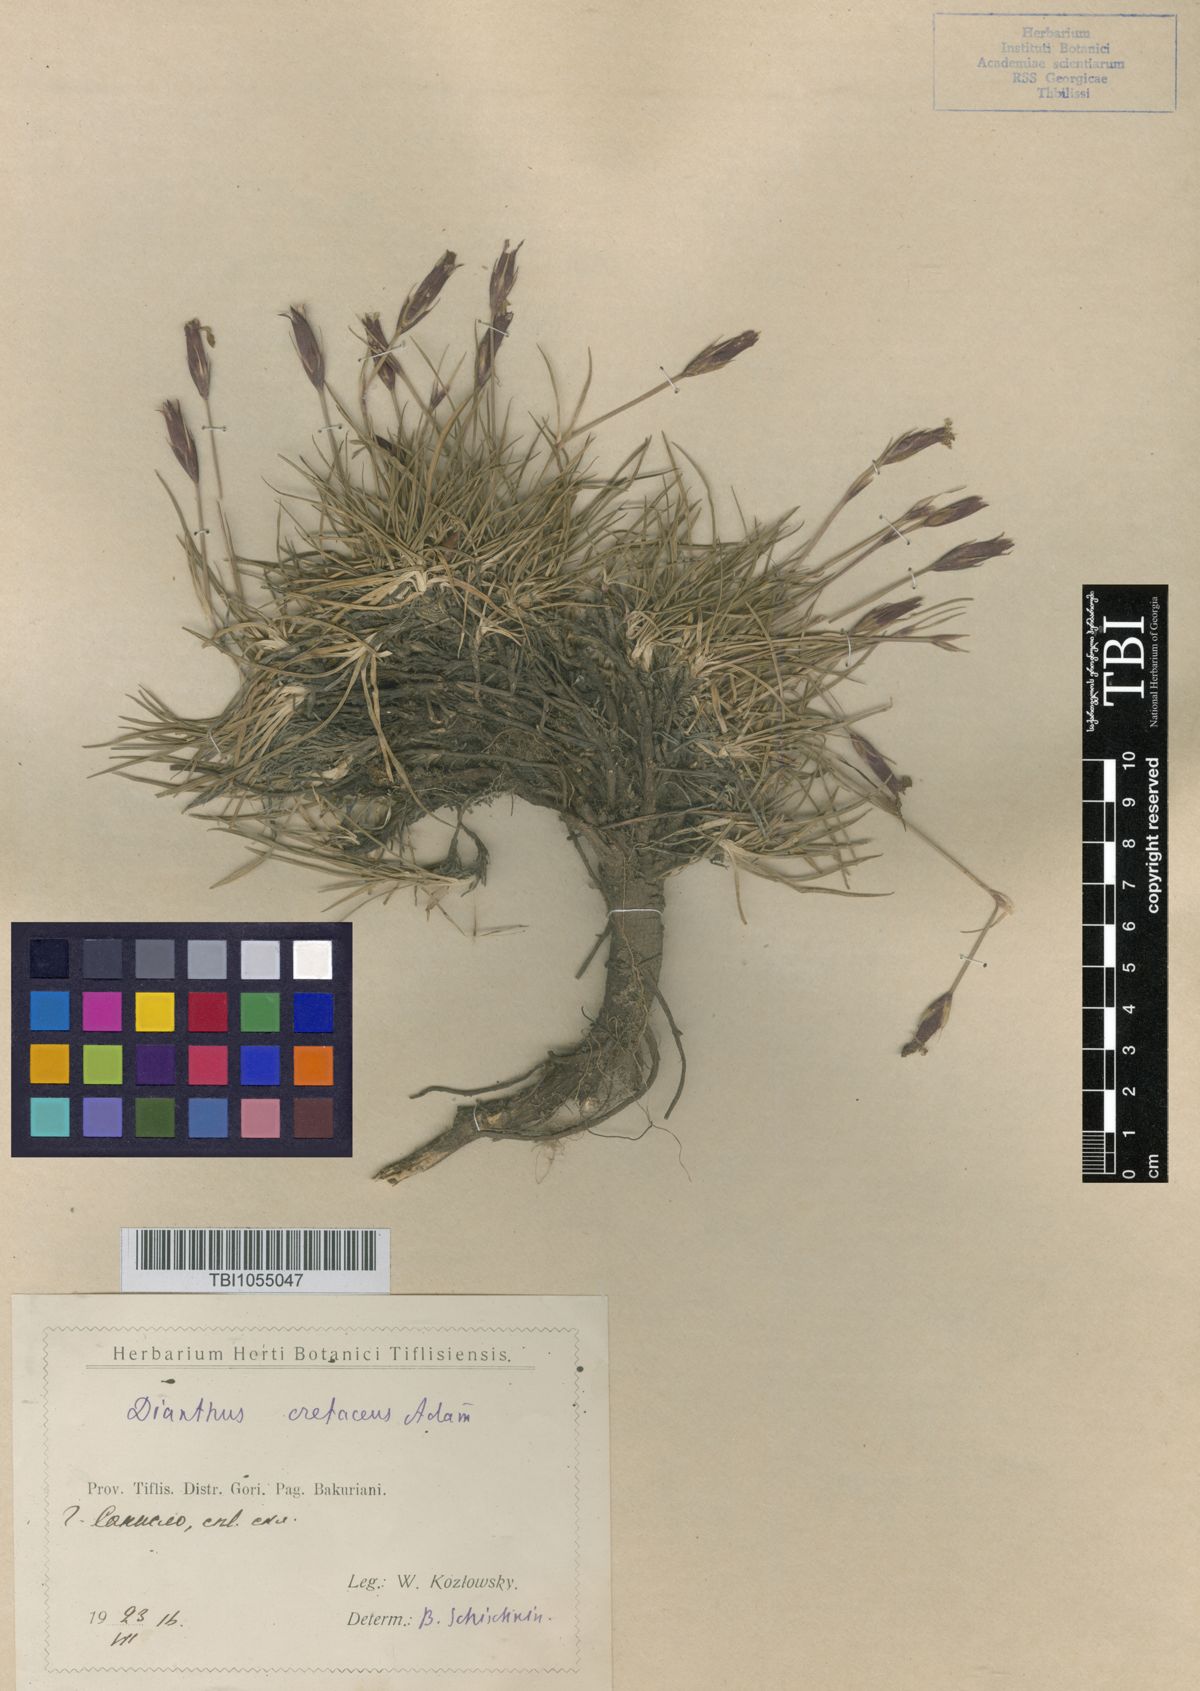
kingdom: Plantae
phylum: Tracheophyta
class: Magnoliopsida
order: Caryophyllales
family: Caryophyllaceae
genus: Dianthus
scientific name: Dianthus cretaceus
